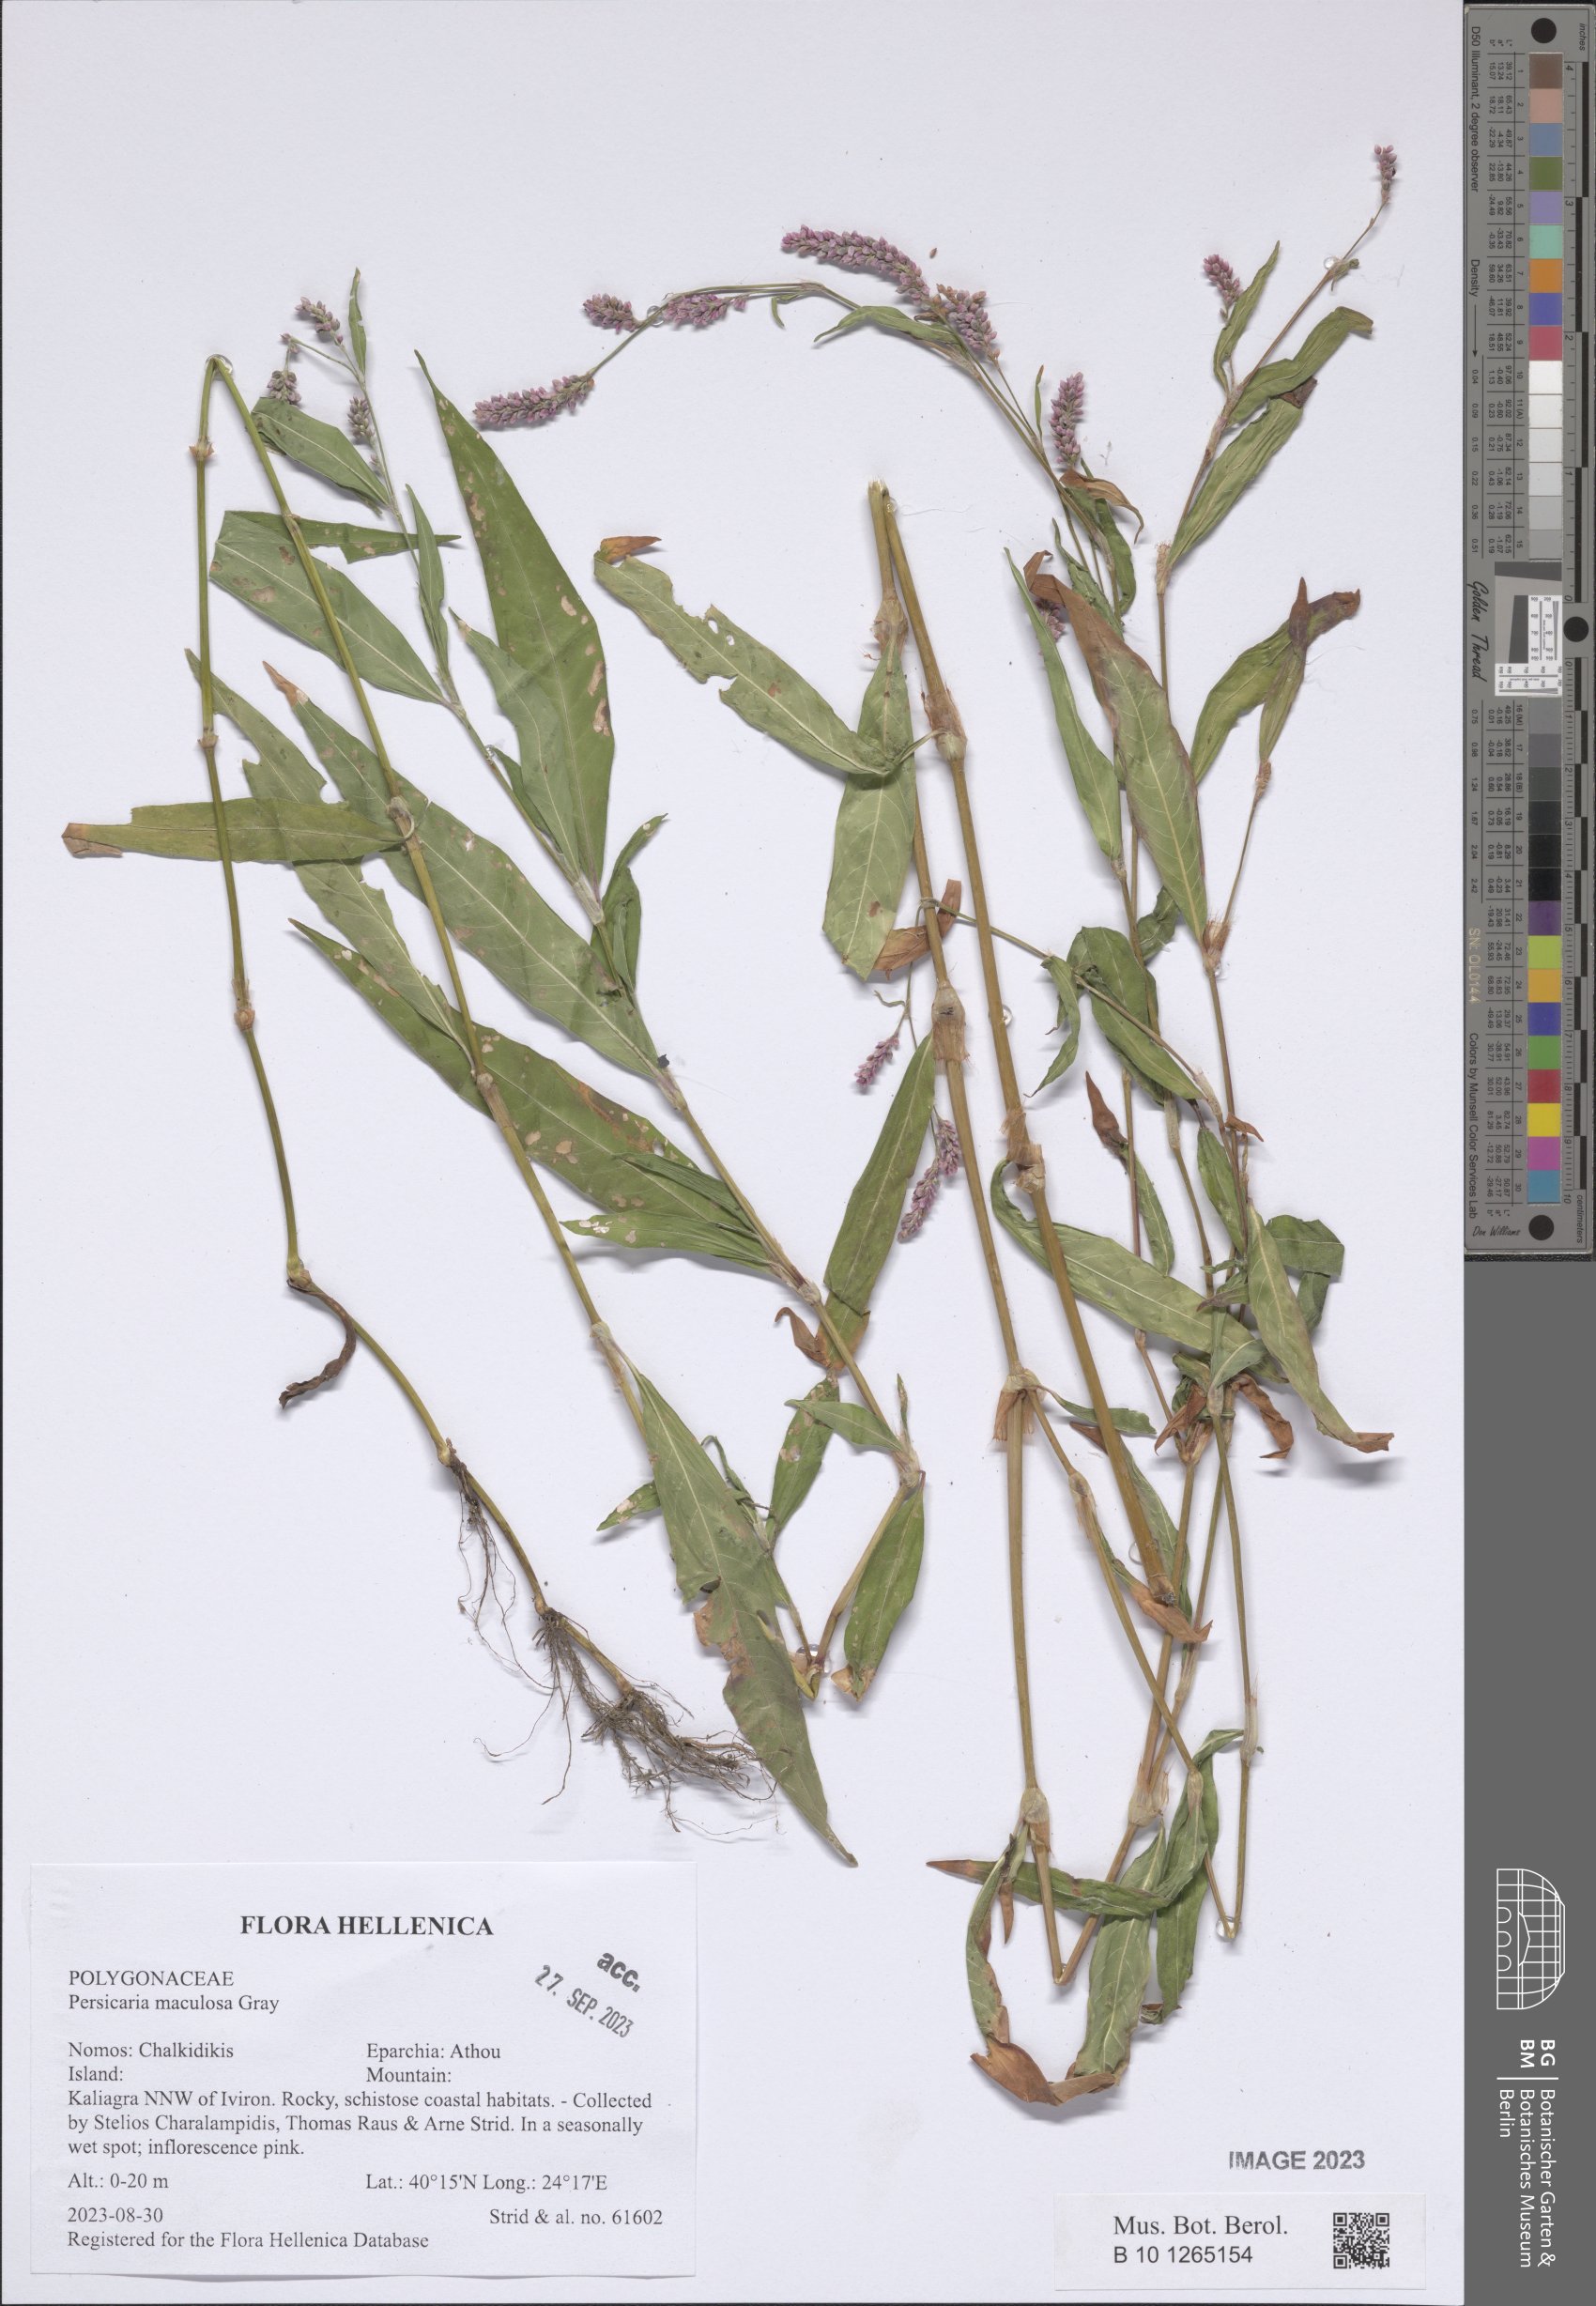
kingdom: Plantae
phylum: Tracheophyta
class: Magnoliopsida
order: Caryophyllales
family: Polygonaceae
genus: Persicaria
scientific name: Persicaria maculosa
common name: Redshank
